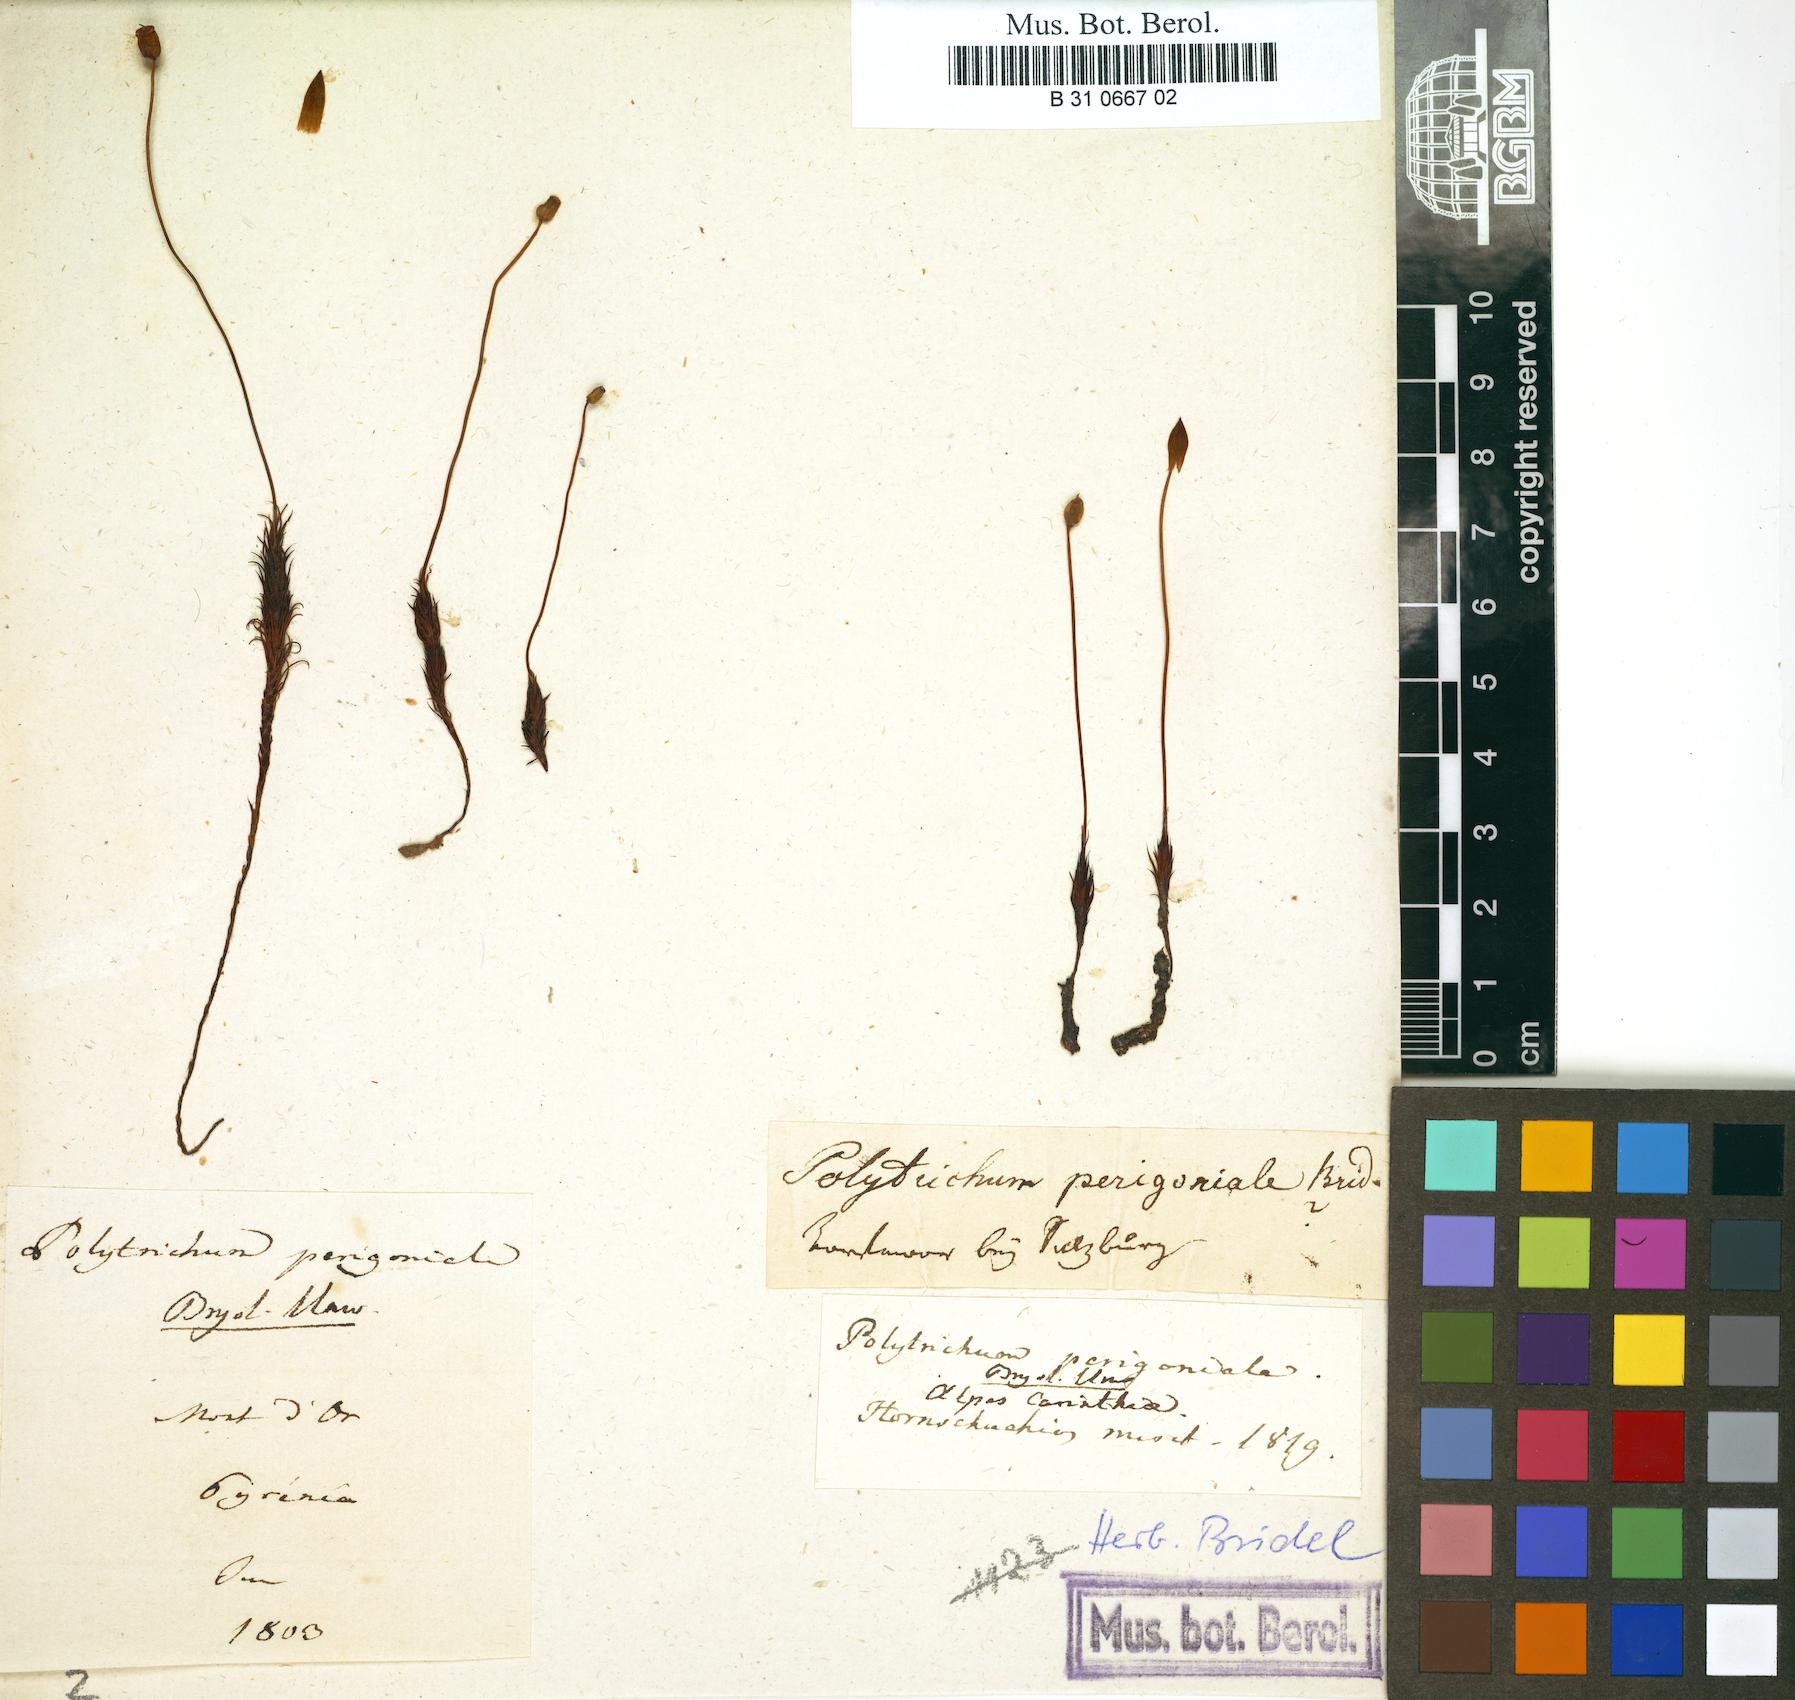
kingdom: Plantae
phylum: Bryophyta
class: Polytrichopsida
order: Polytrichales
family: Polytrichaceae
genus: Polytrichum
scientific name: Polytrichum perigoniale
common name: Dense haircap moss
